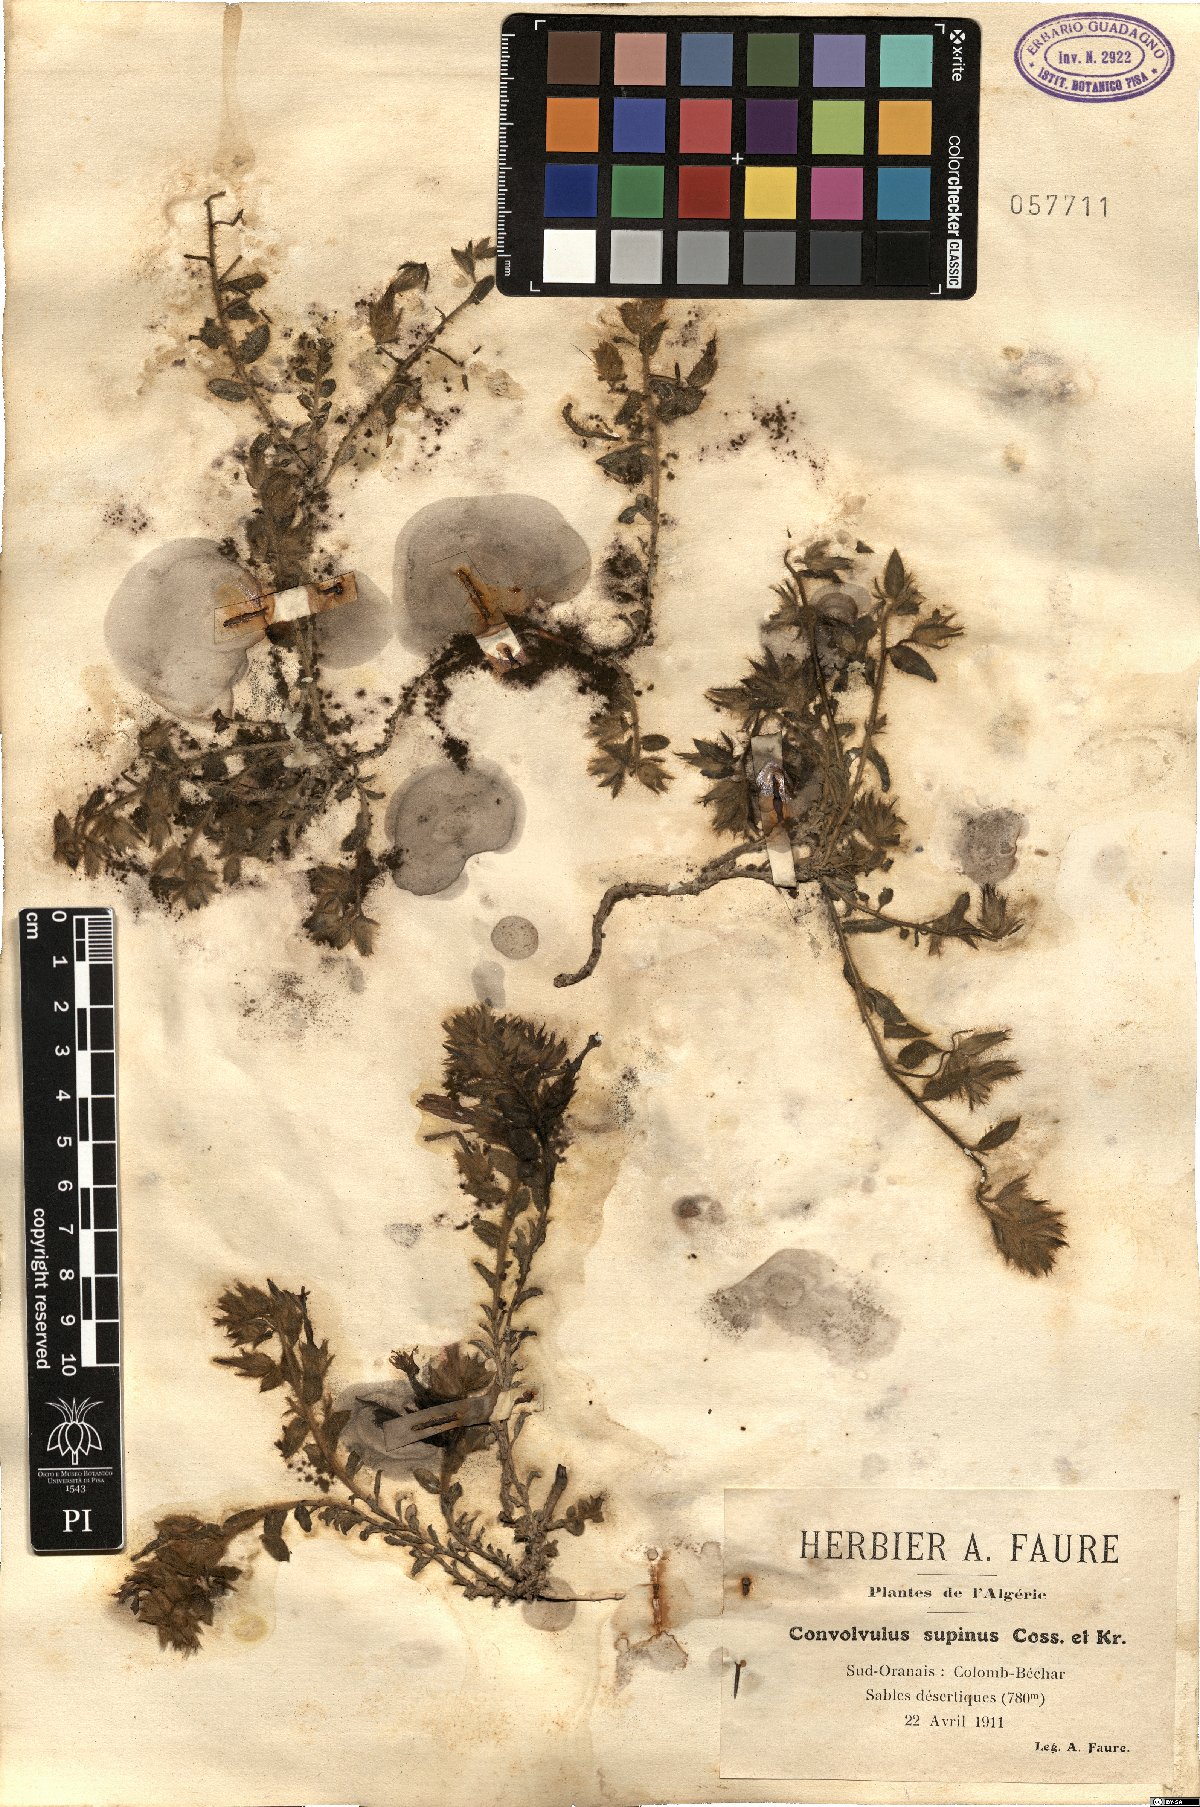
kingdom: Plantae
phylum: Tracheophyta
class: Magnoliopsida
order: Solanales
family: Convolvulaceae
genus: Convolvulus
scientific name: Convolvulus supinus
